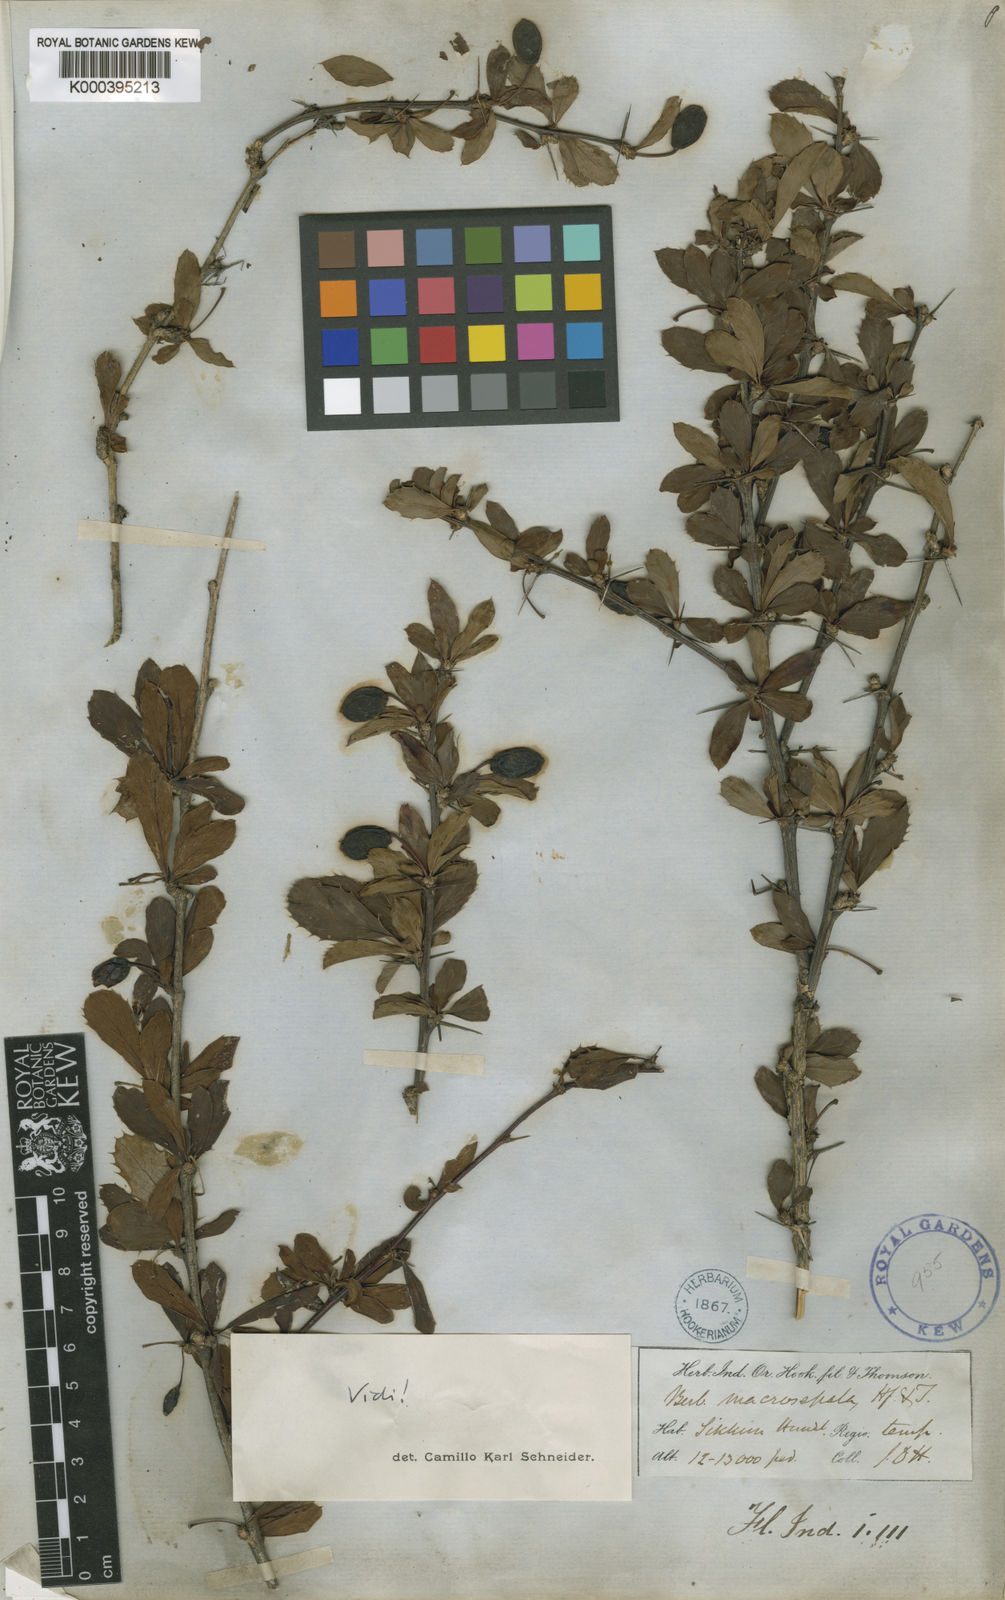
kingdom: Plantae
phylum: Tracheophyta
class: Magnoliopsida
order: Ranunculales
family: Berberidaceae
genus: Berberis
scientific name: Berberis macrosepala
